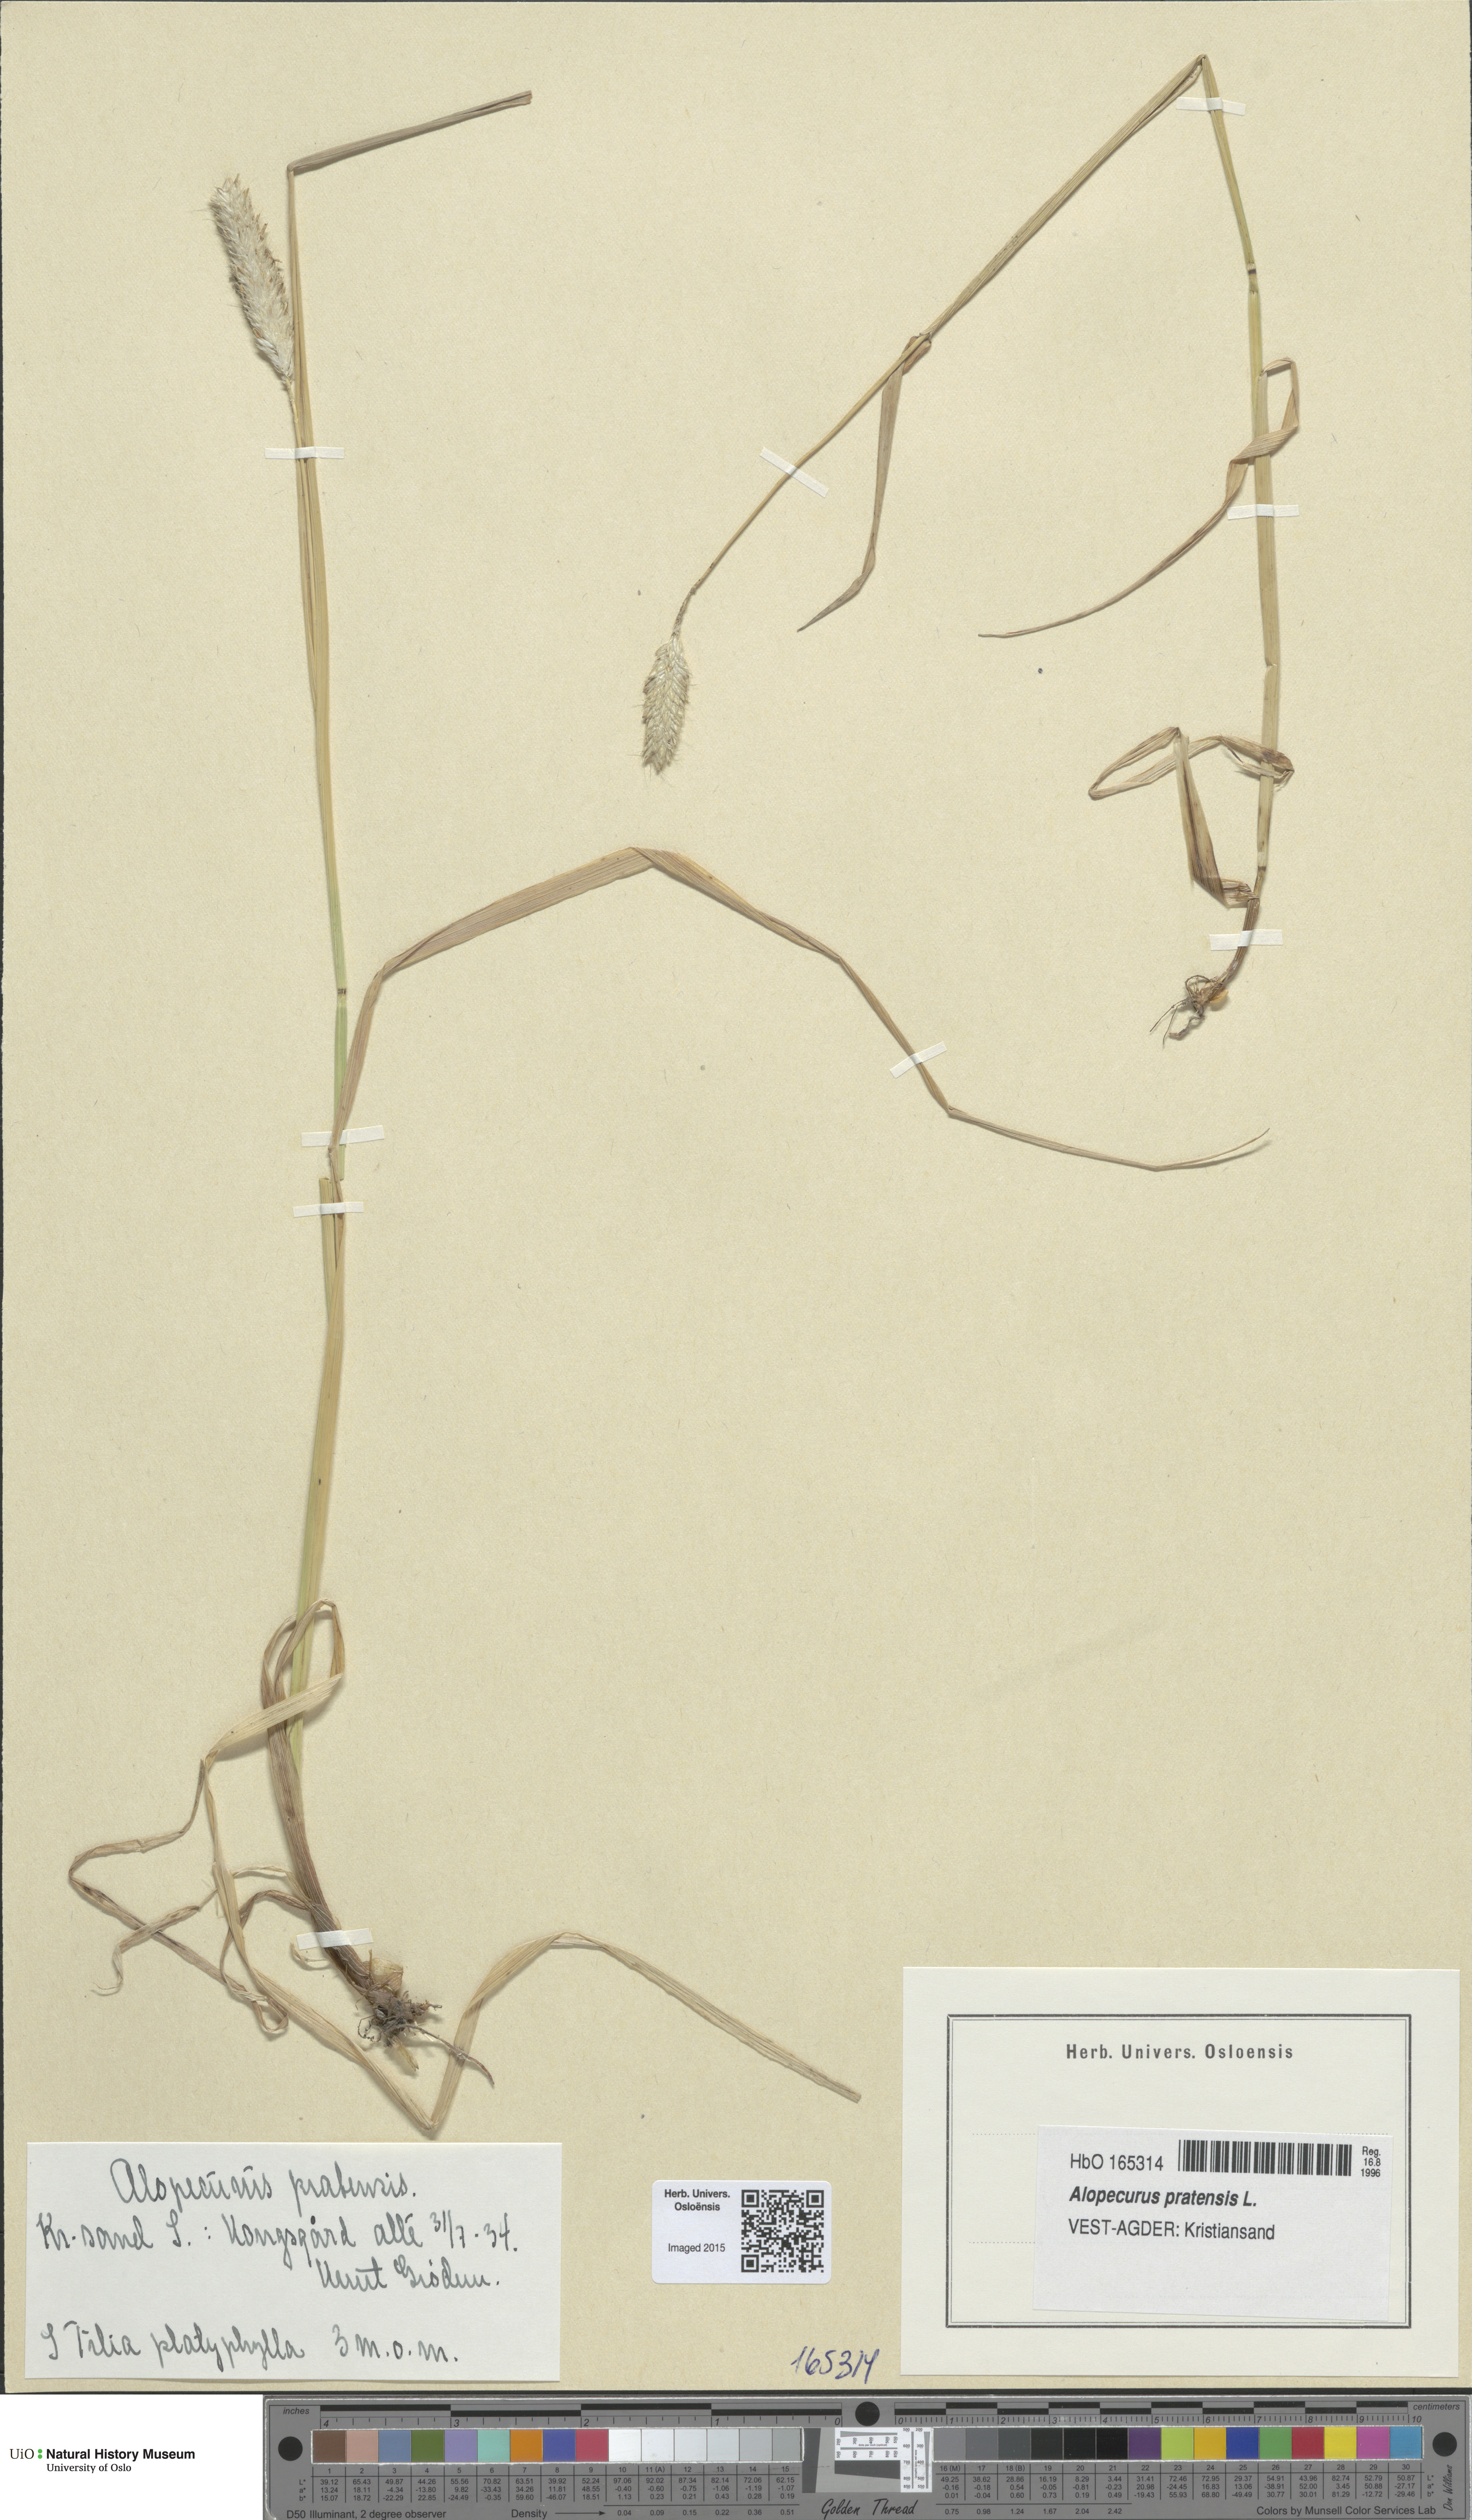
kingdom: Plantae
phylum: Tracheophyta
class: Liliopsida
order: Poales
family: Poaceae
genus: Alopecurus
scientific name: Alopecurus pratensis
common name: Meadow foxtail
